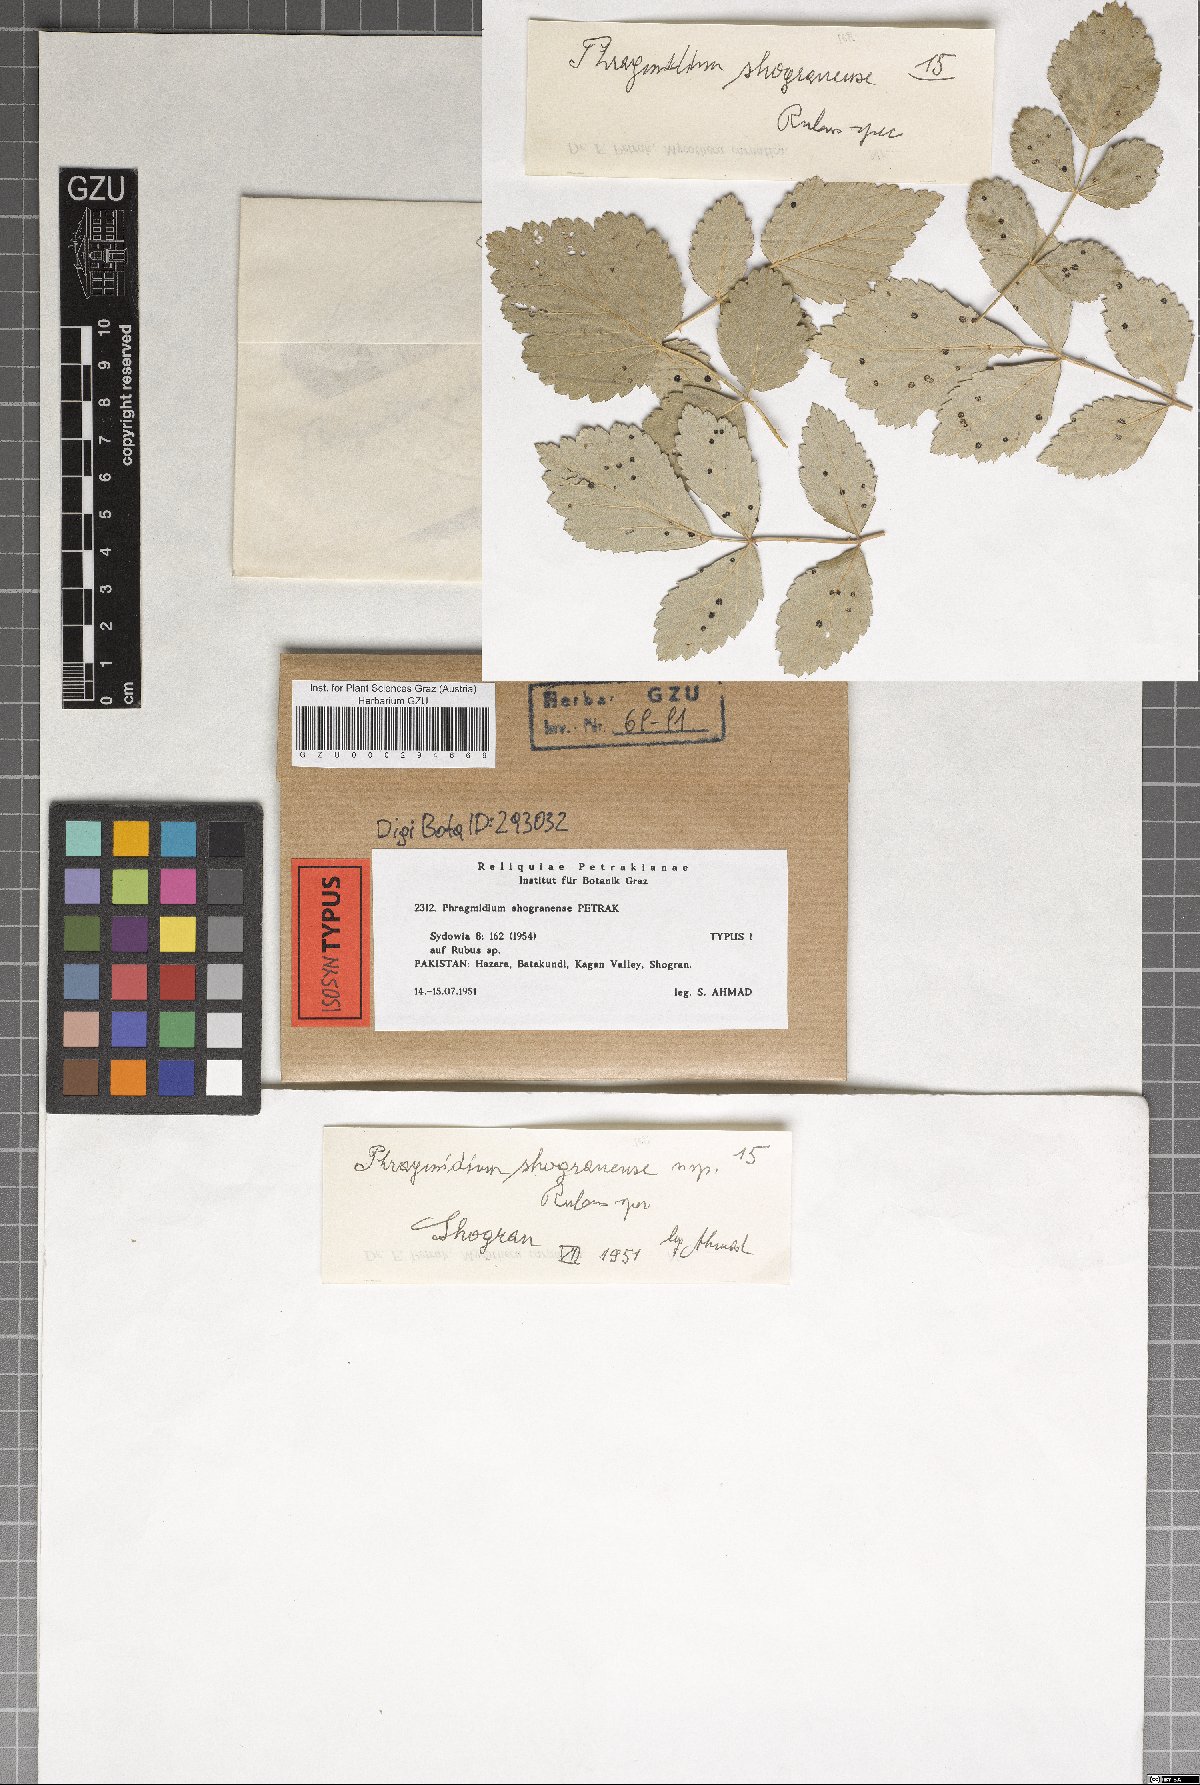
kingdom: Fungi
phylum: Basidiomycota
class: Pucciniomycetes
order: Pucciniales
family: Phragmidiaceae
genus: Phragmidium
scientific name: Phragmidium shogranense
